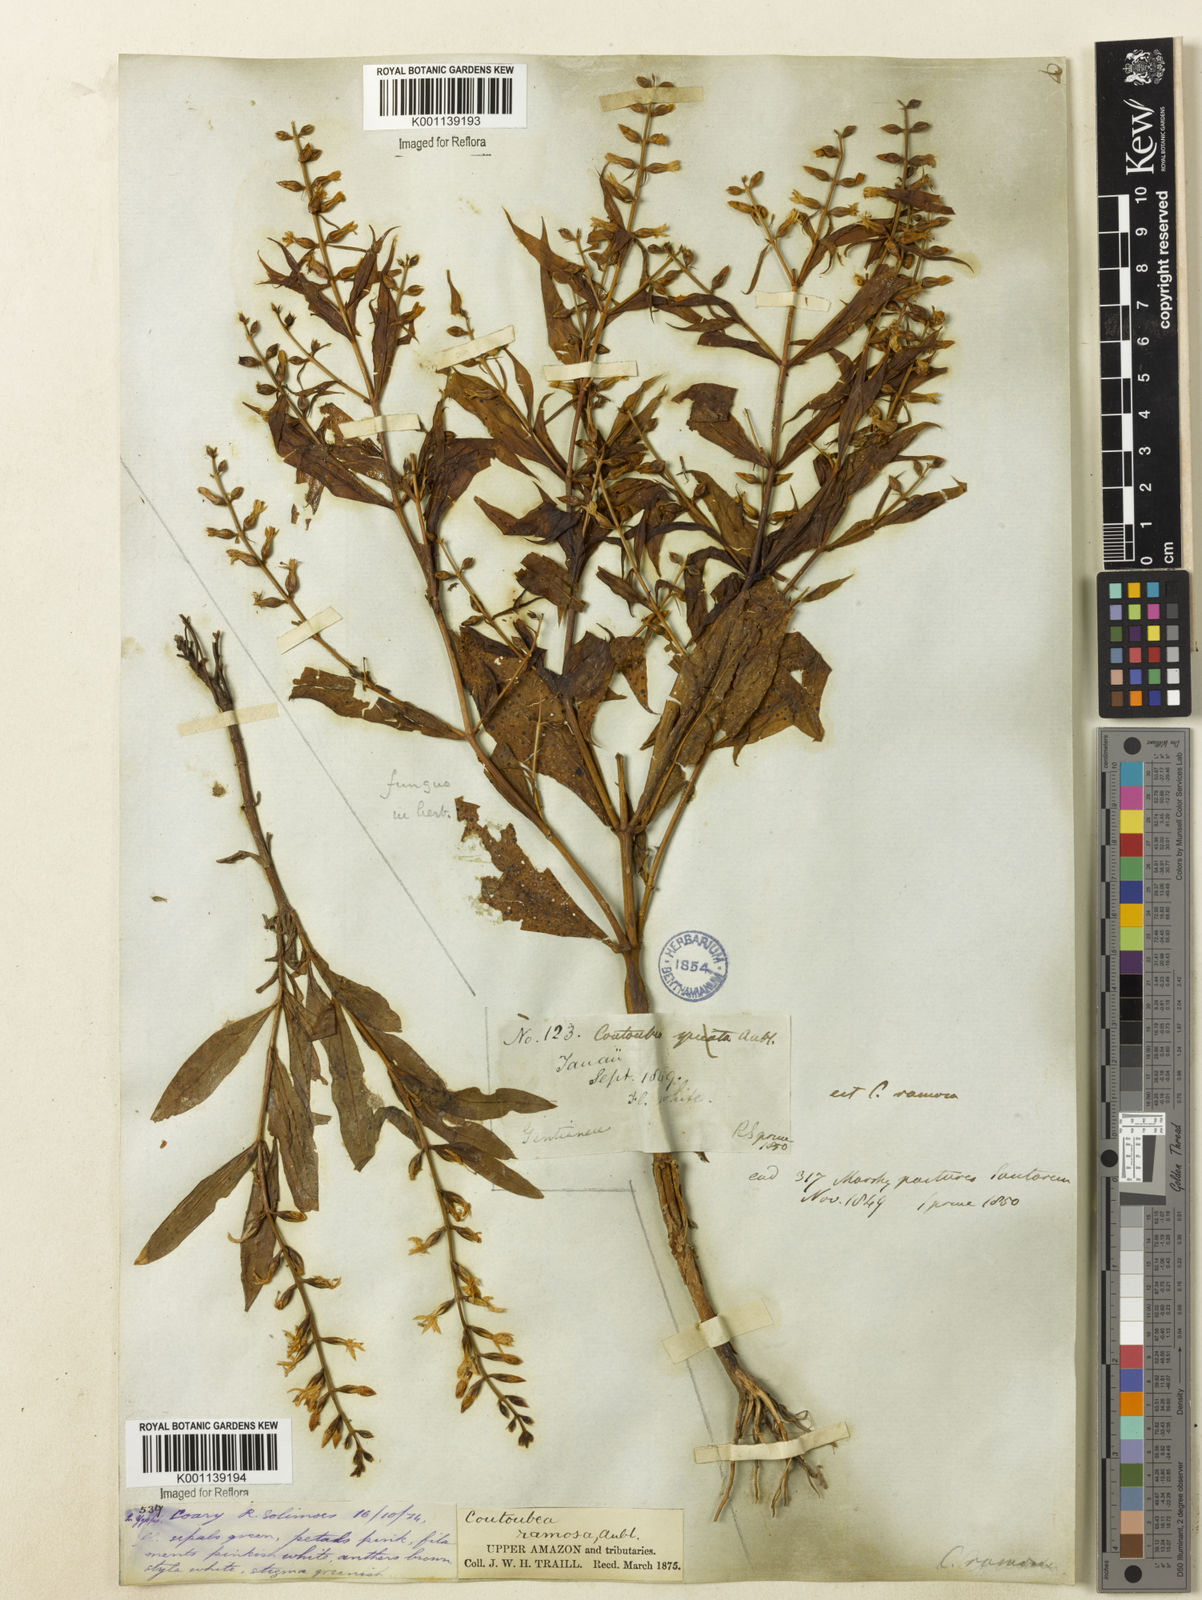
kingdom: Plantae
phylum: Tracheophyta
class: Magnoliopsida
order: Gentianales
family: Gentianaceae
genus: Coutoubea
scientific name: Coutoubea ramosa
